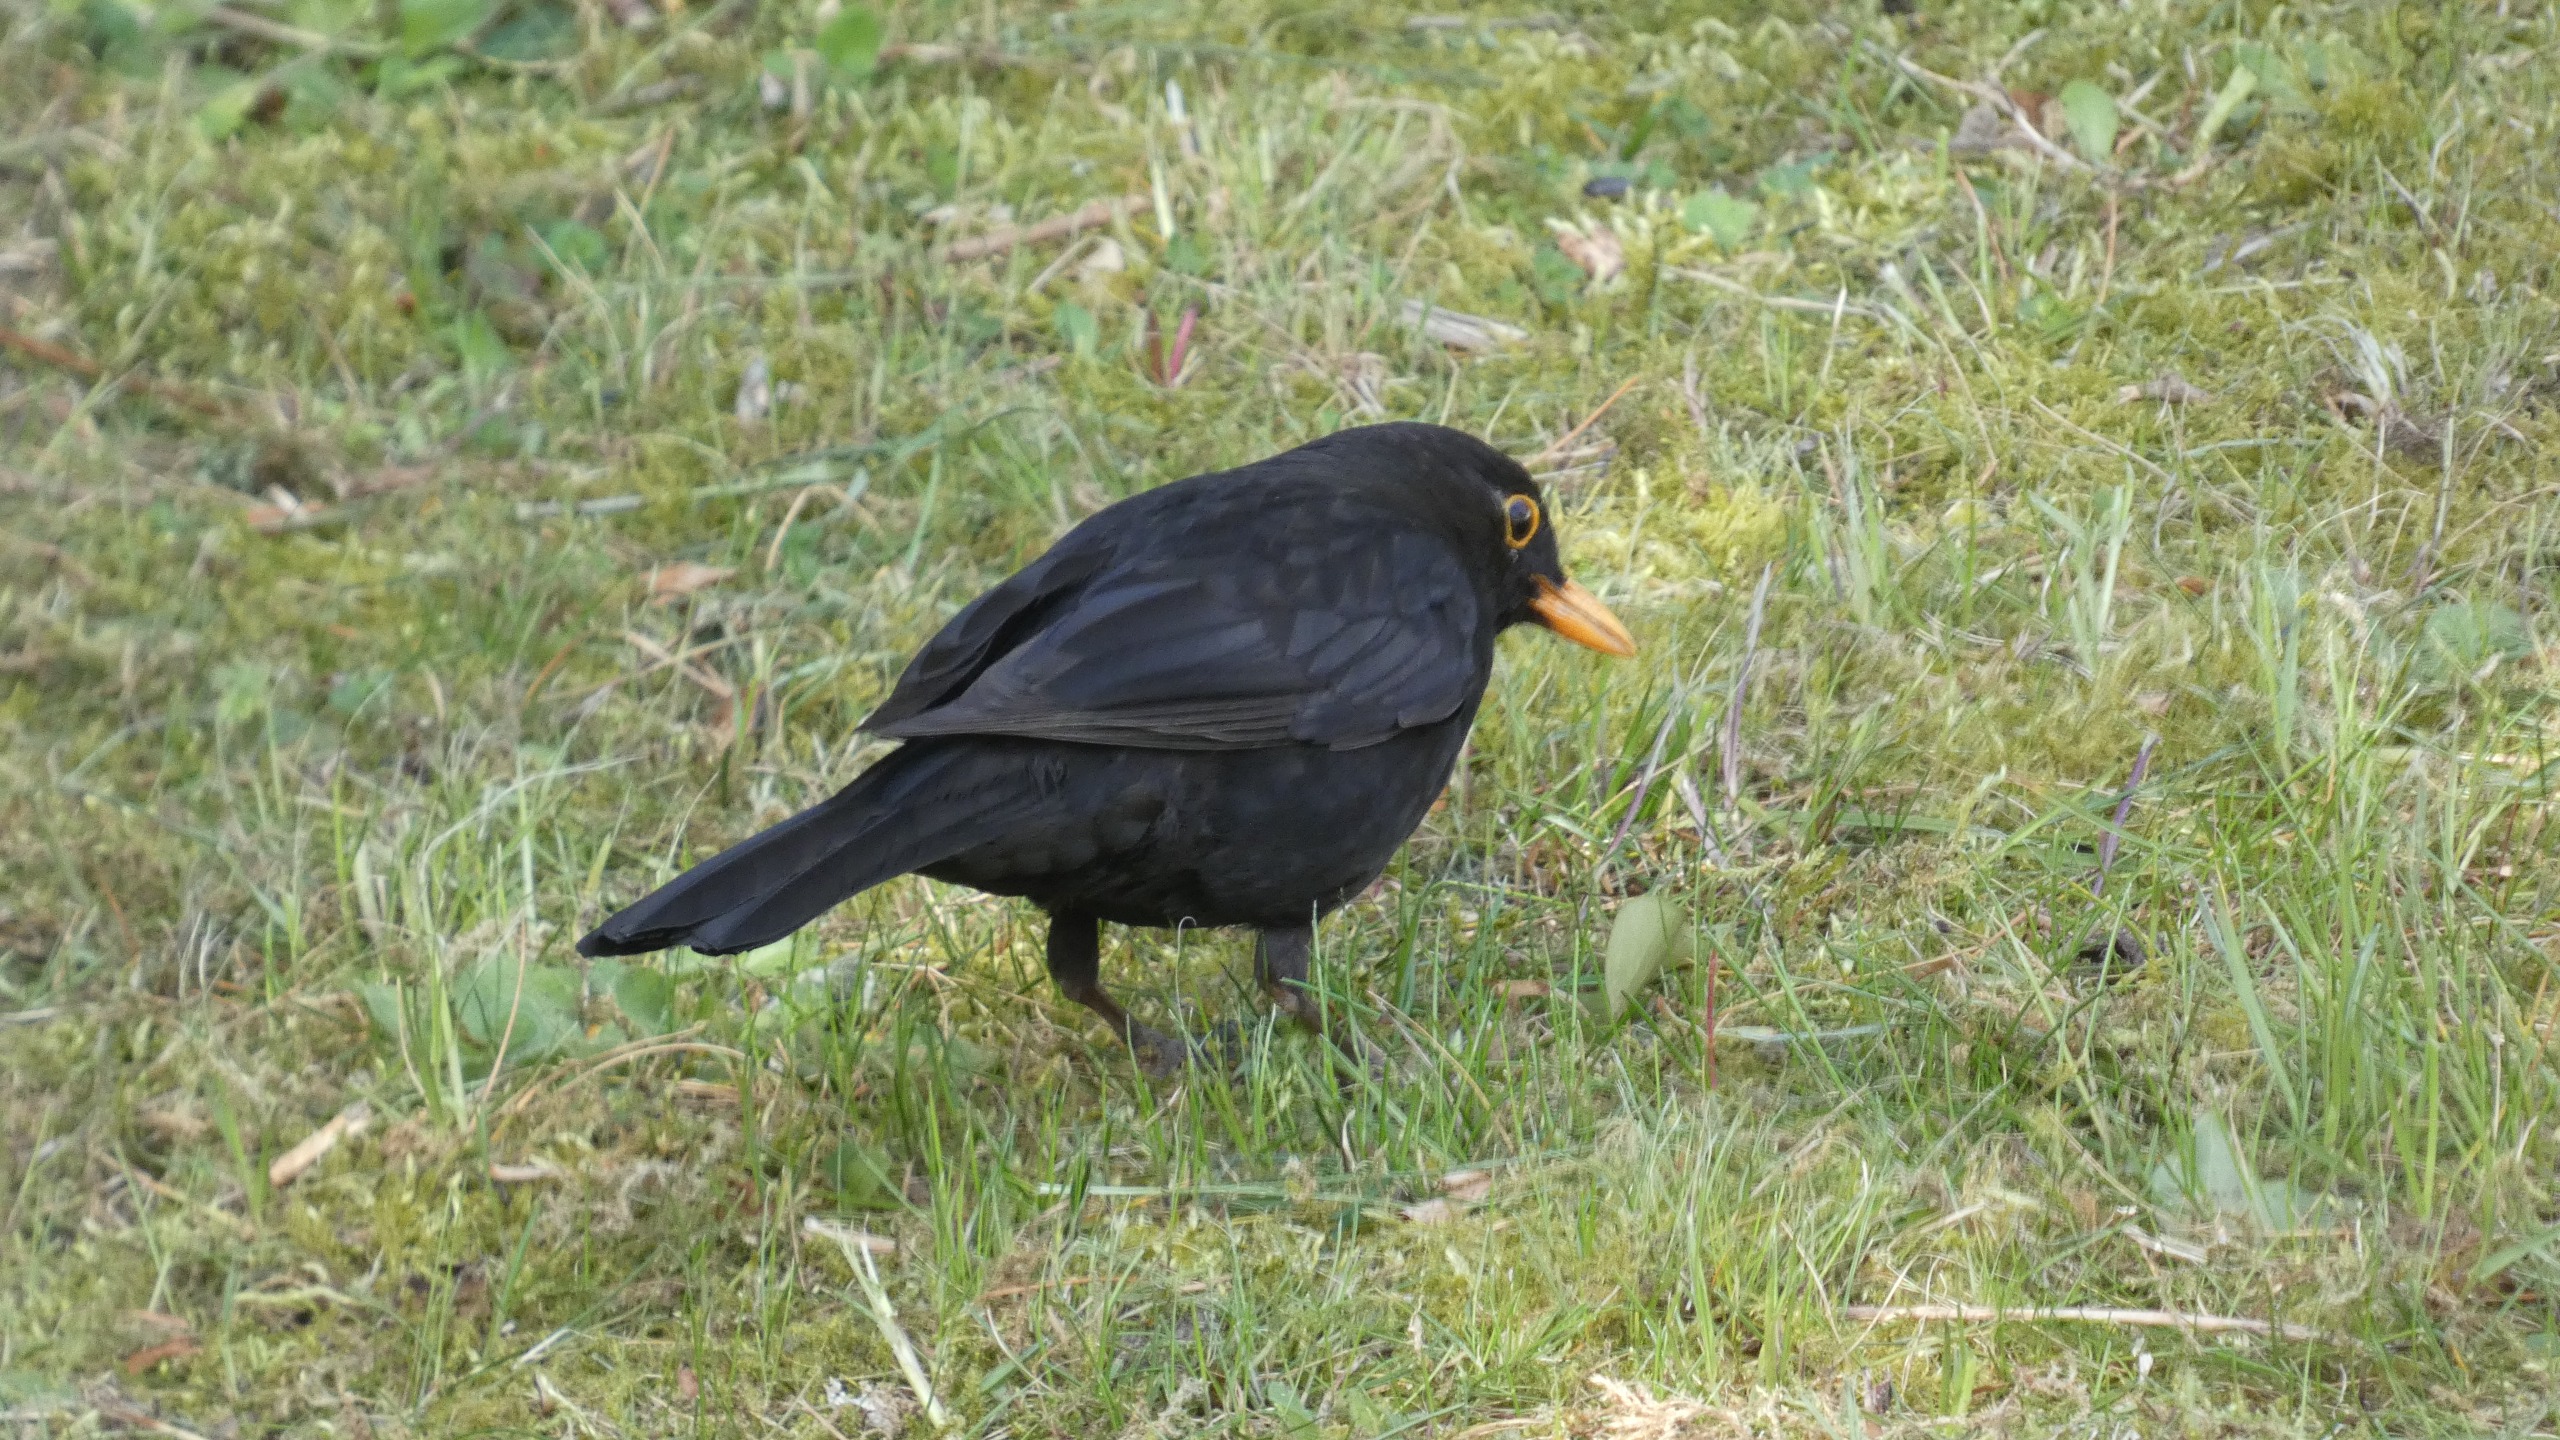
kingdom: Animalia
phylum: Chordata
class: Aves
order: Passeriformes
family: Turdidae
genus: Turdus
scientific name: Turdus merula
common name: Solsort
